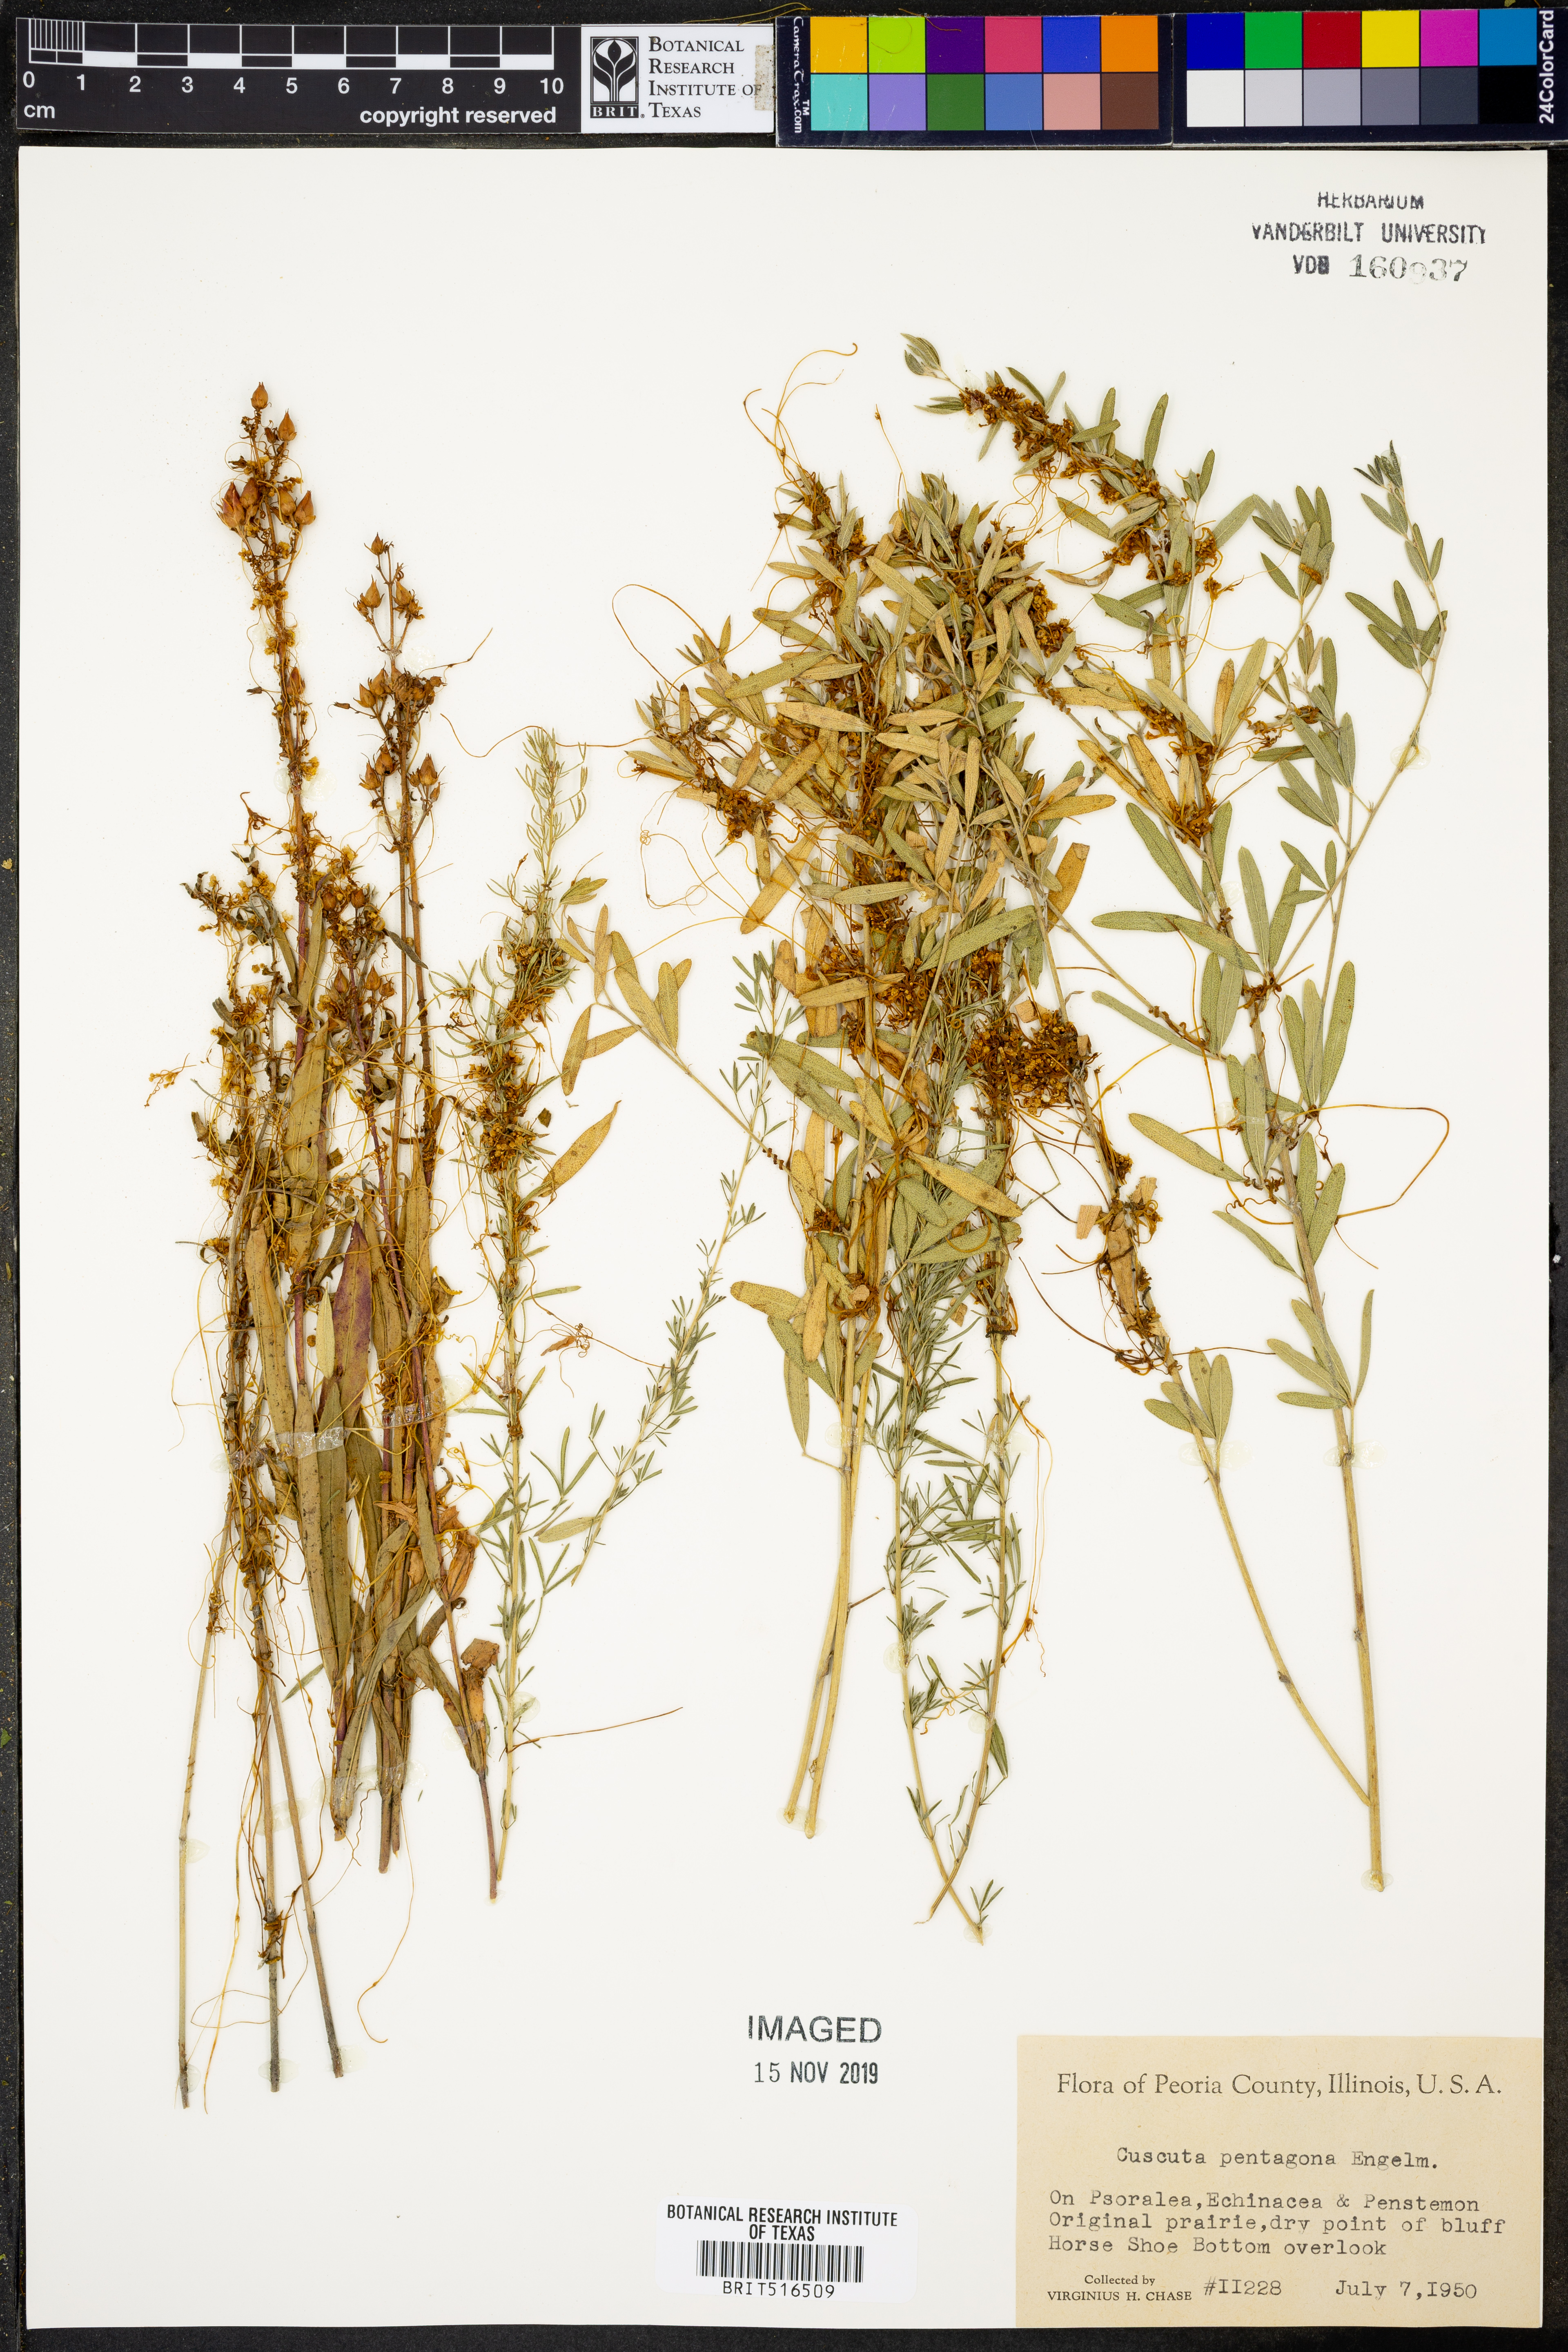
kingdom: Plantae
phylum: Tracheophyta
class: Magnoliopsida
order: Solanales
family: Convolvulaceae
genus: Cuscuta
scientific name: Cuscuta pentagona
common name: Fiveangled dodder
